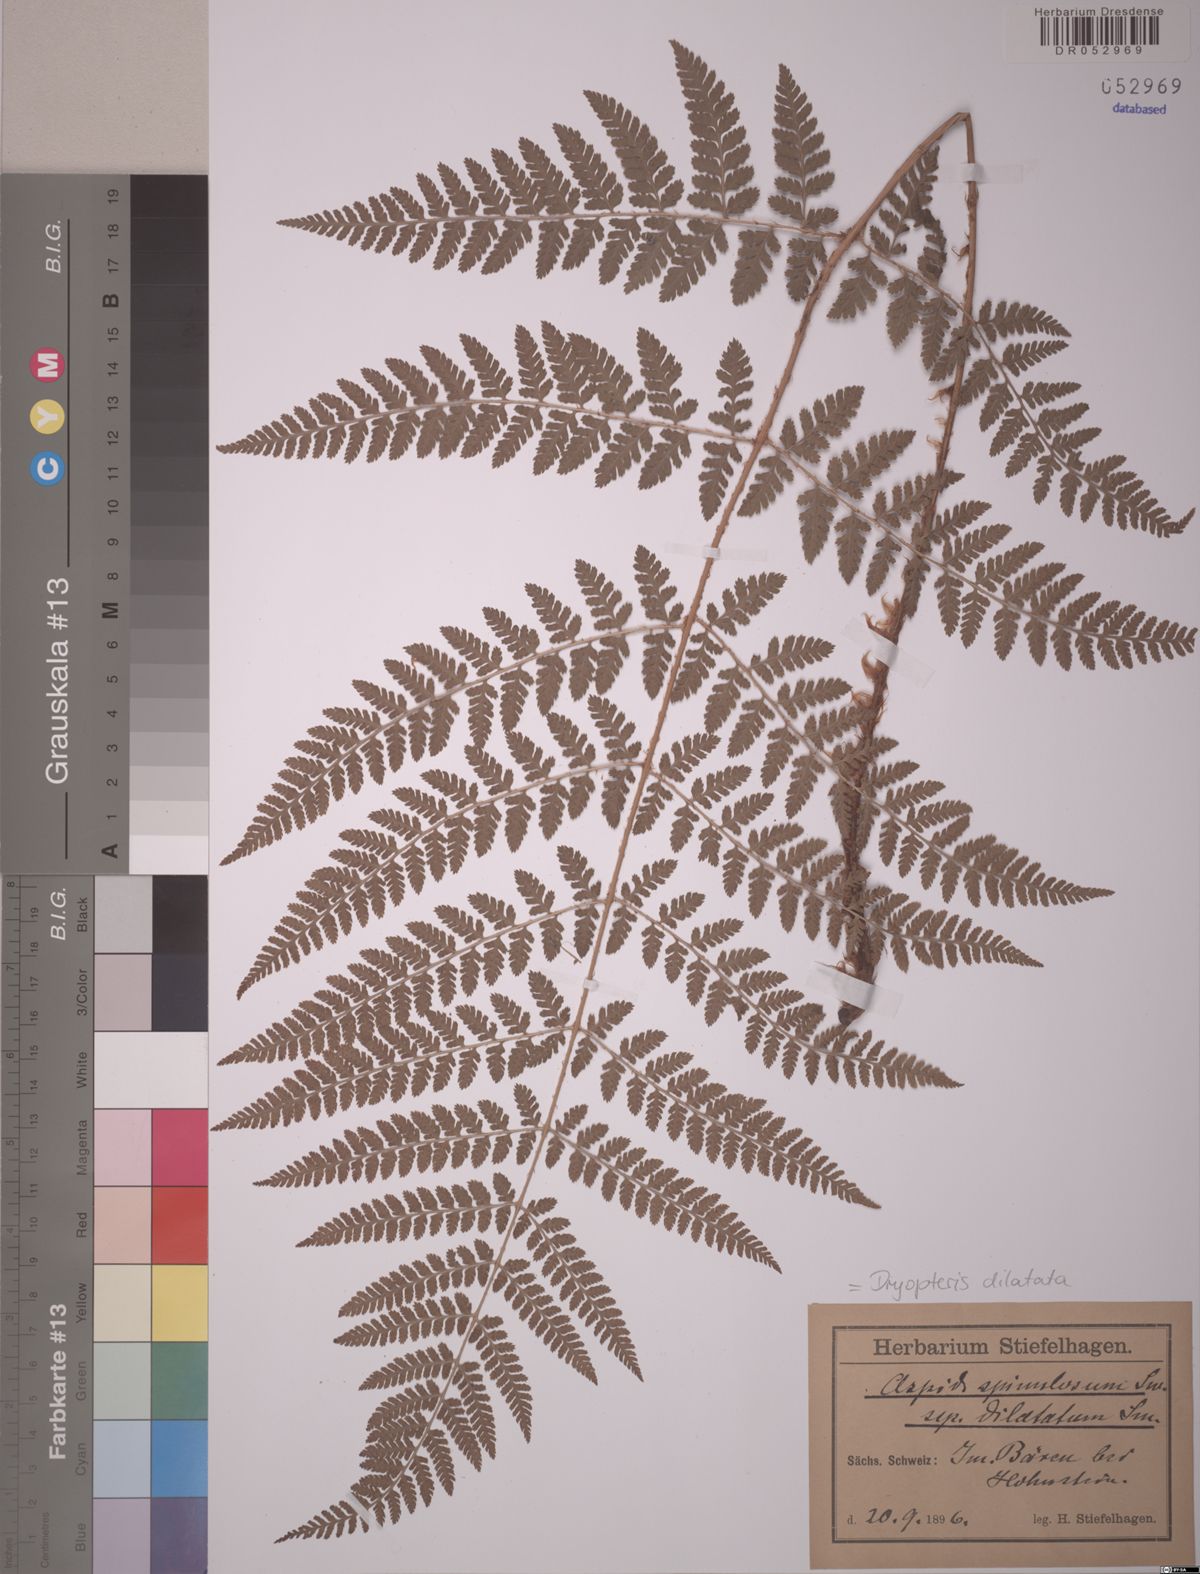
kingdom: Plantae
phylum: Tracheophyta
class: Polypodiopsida
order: Polypodiales
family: Dryopteridaceae
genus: Dryopteris
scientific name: Dryopteris dilatata
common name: Broad buckler-fern
